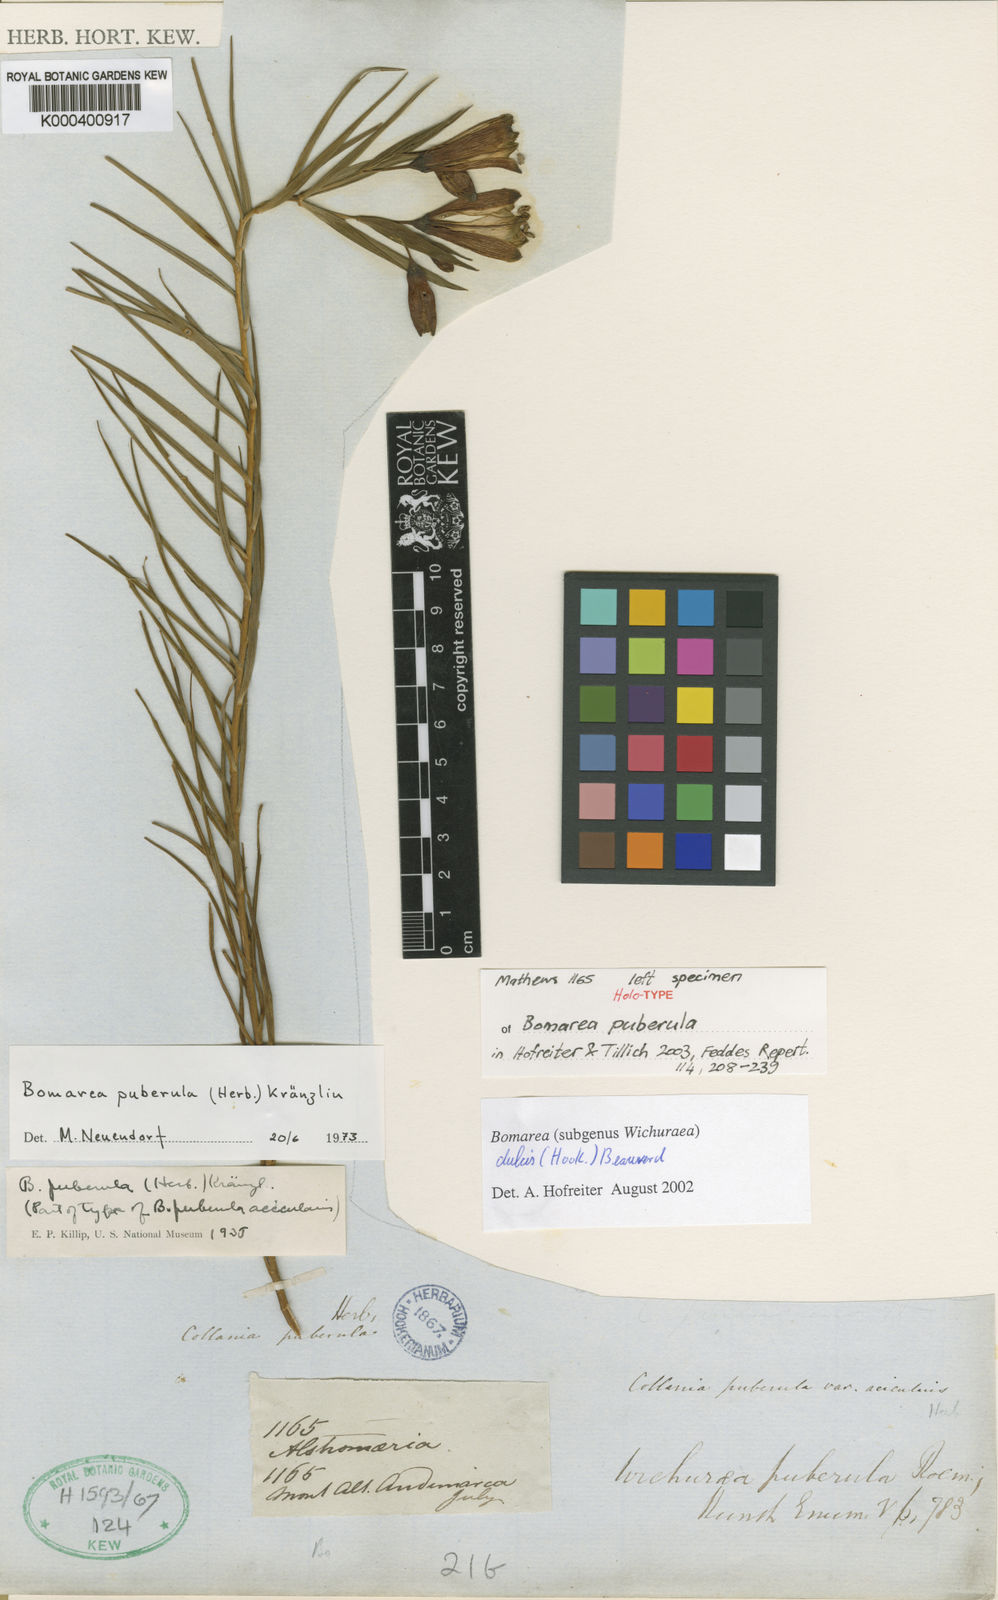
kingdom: Plantae
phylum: Tracheophyta
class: Liliopsida
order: Liliales
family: Alstroemeriaceae
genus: Bomarea
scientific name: Bomarea dulcis
